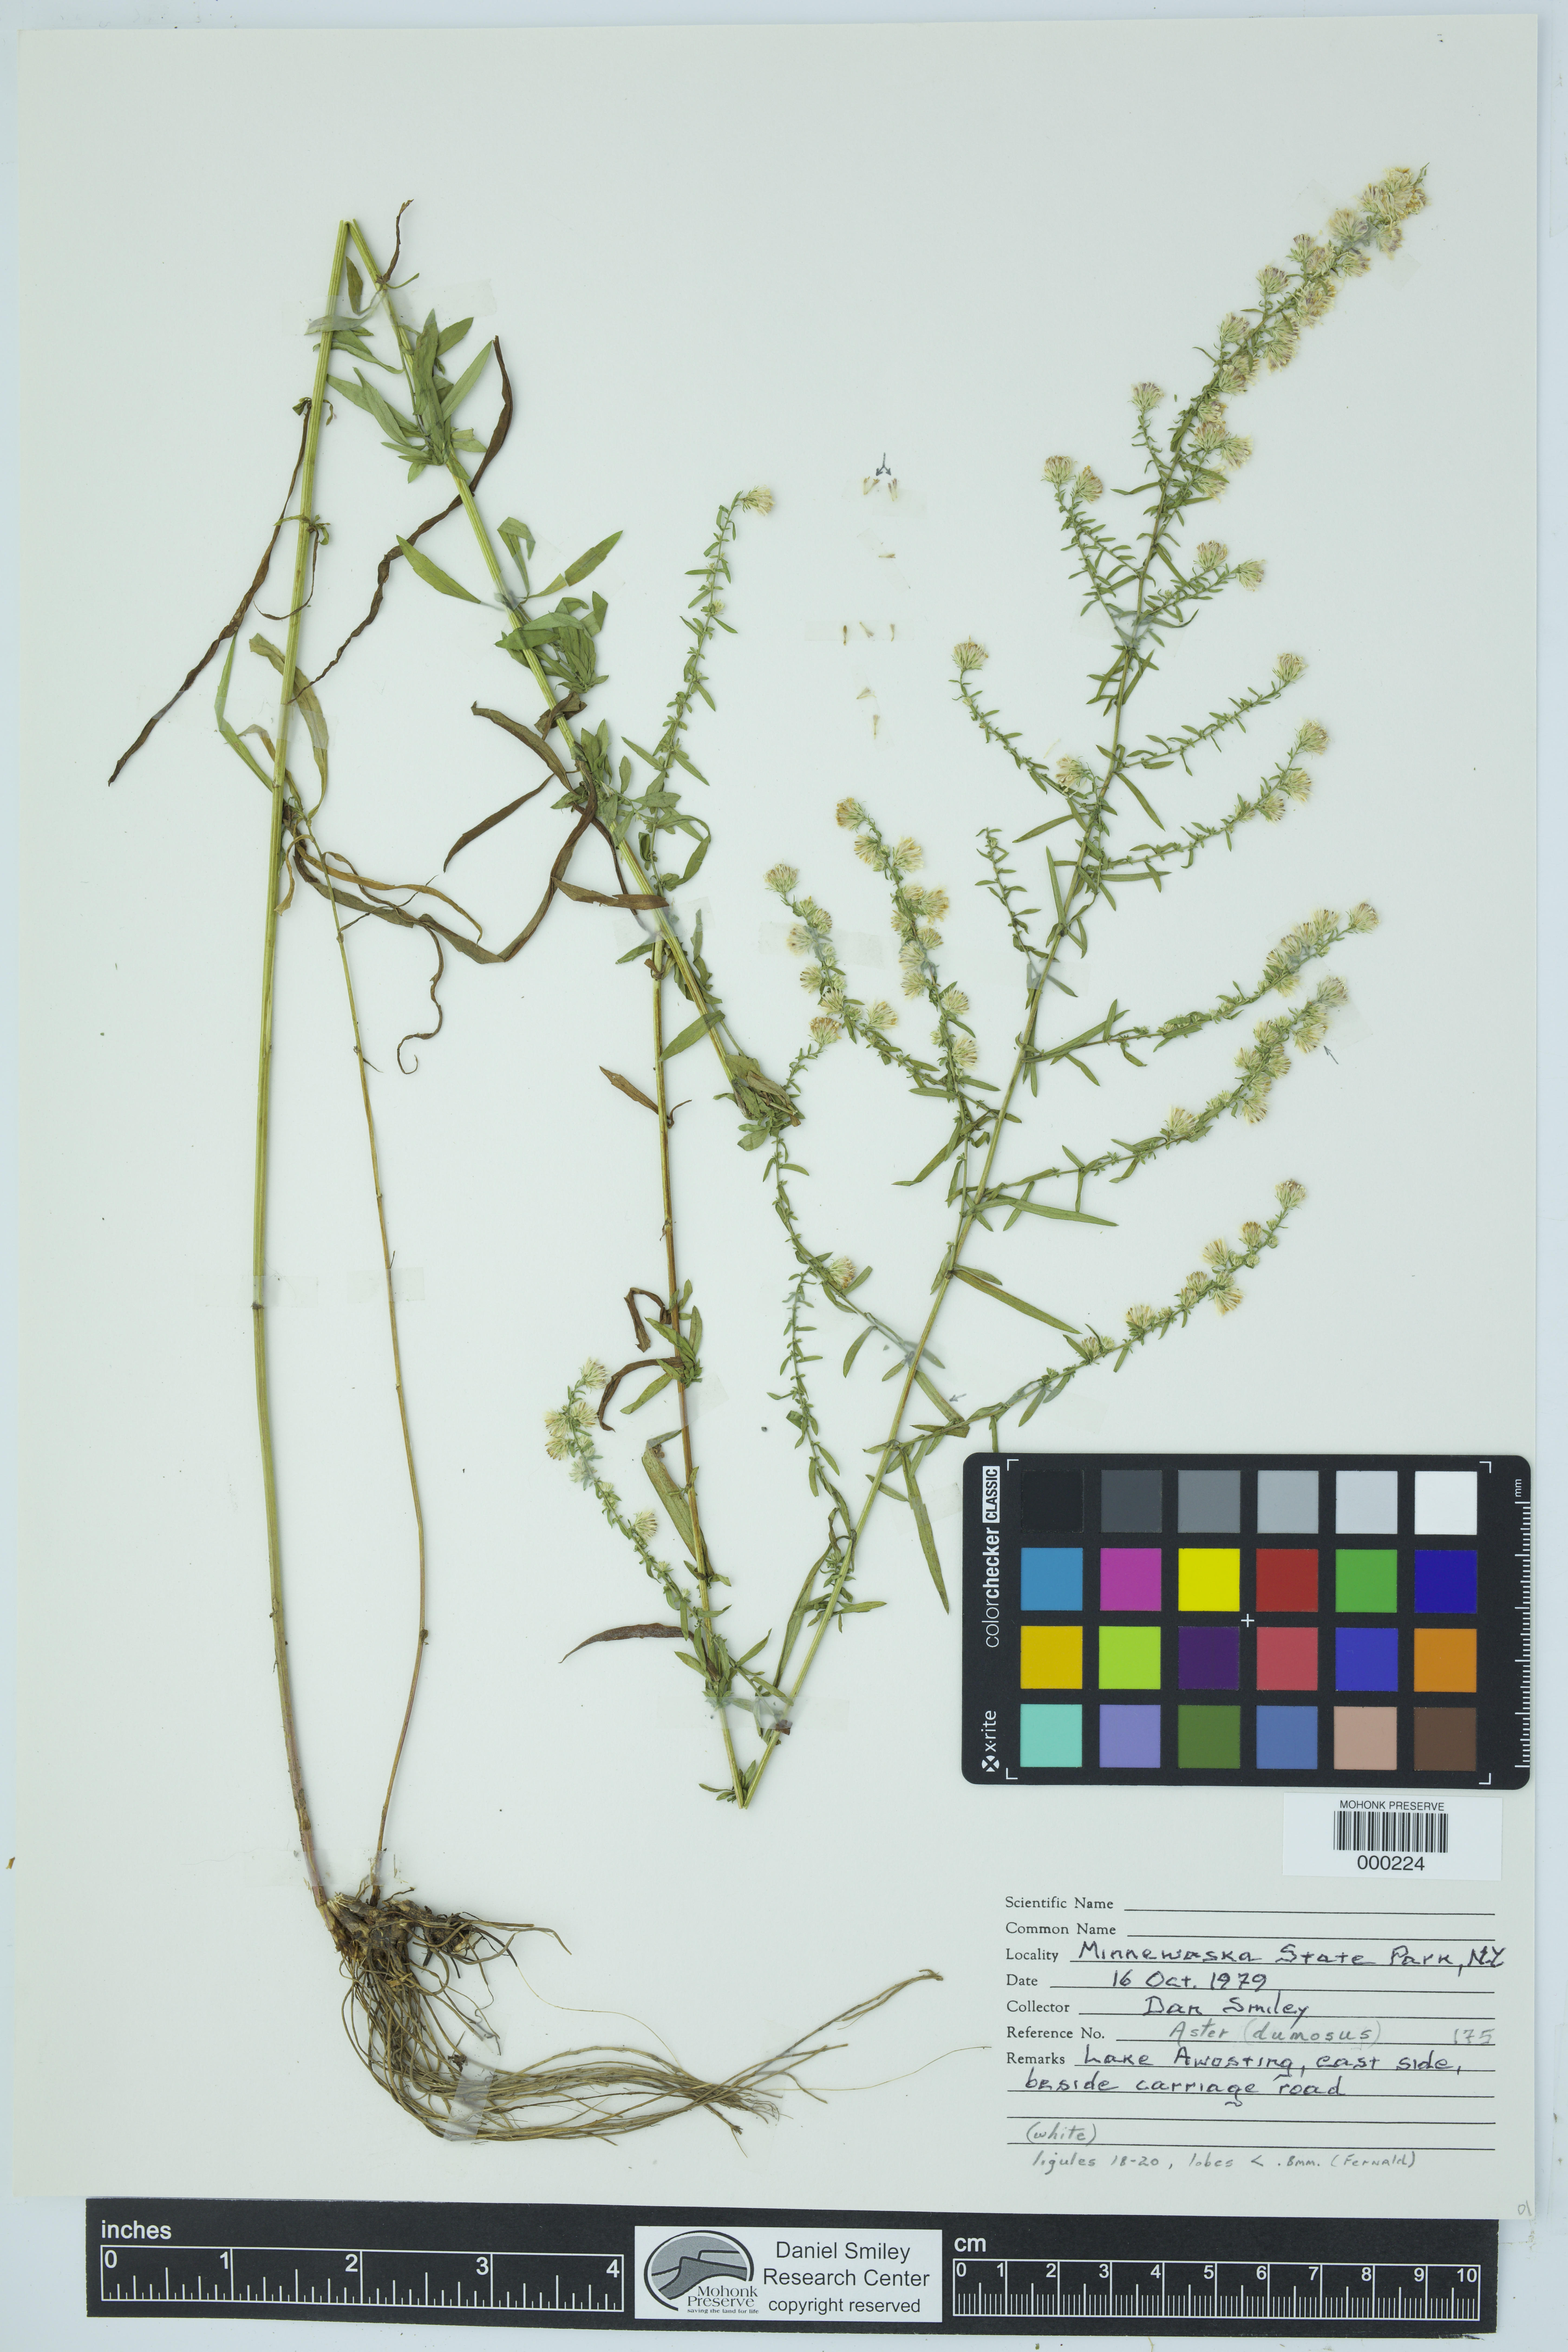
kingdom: Plantae
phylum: Tracheophyta
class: Magnoliopsida
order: Asterales
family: Asteraceae
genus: Symphyotrichum
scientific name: Symphyotrichum dumosum
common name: Bushy aster
